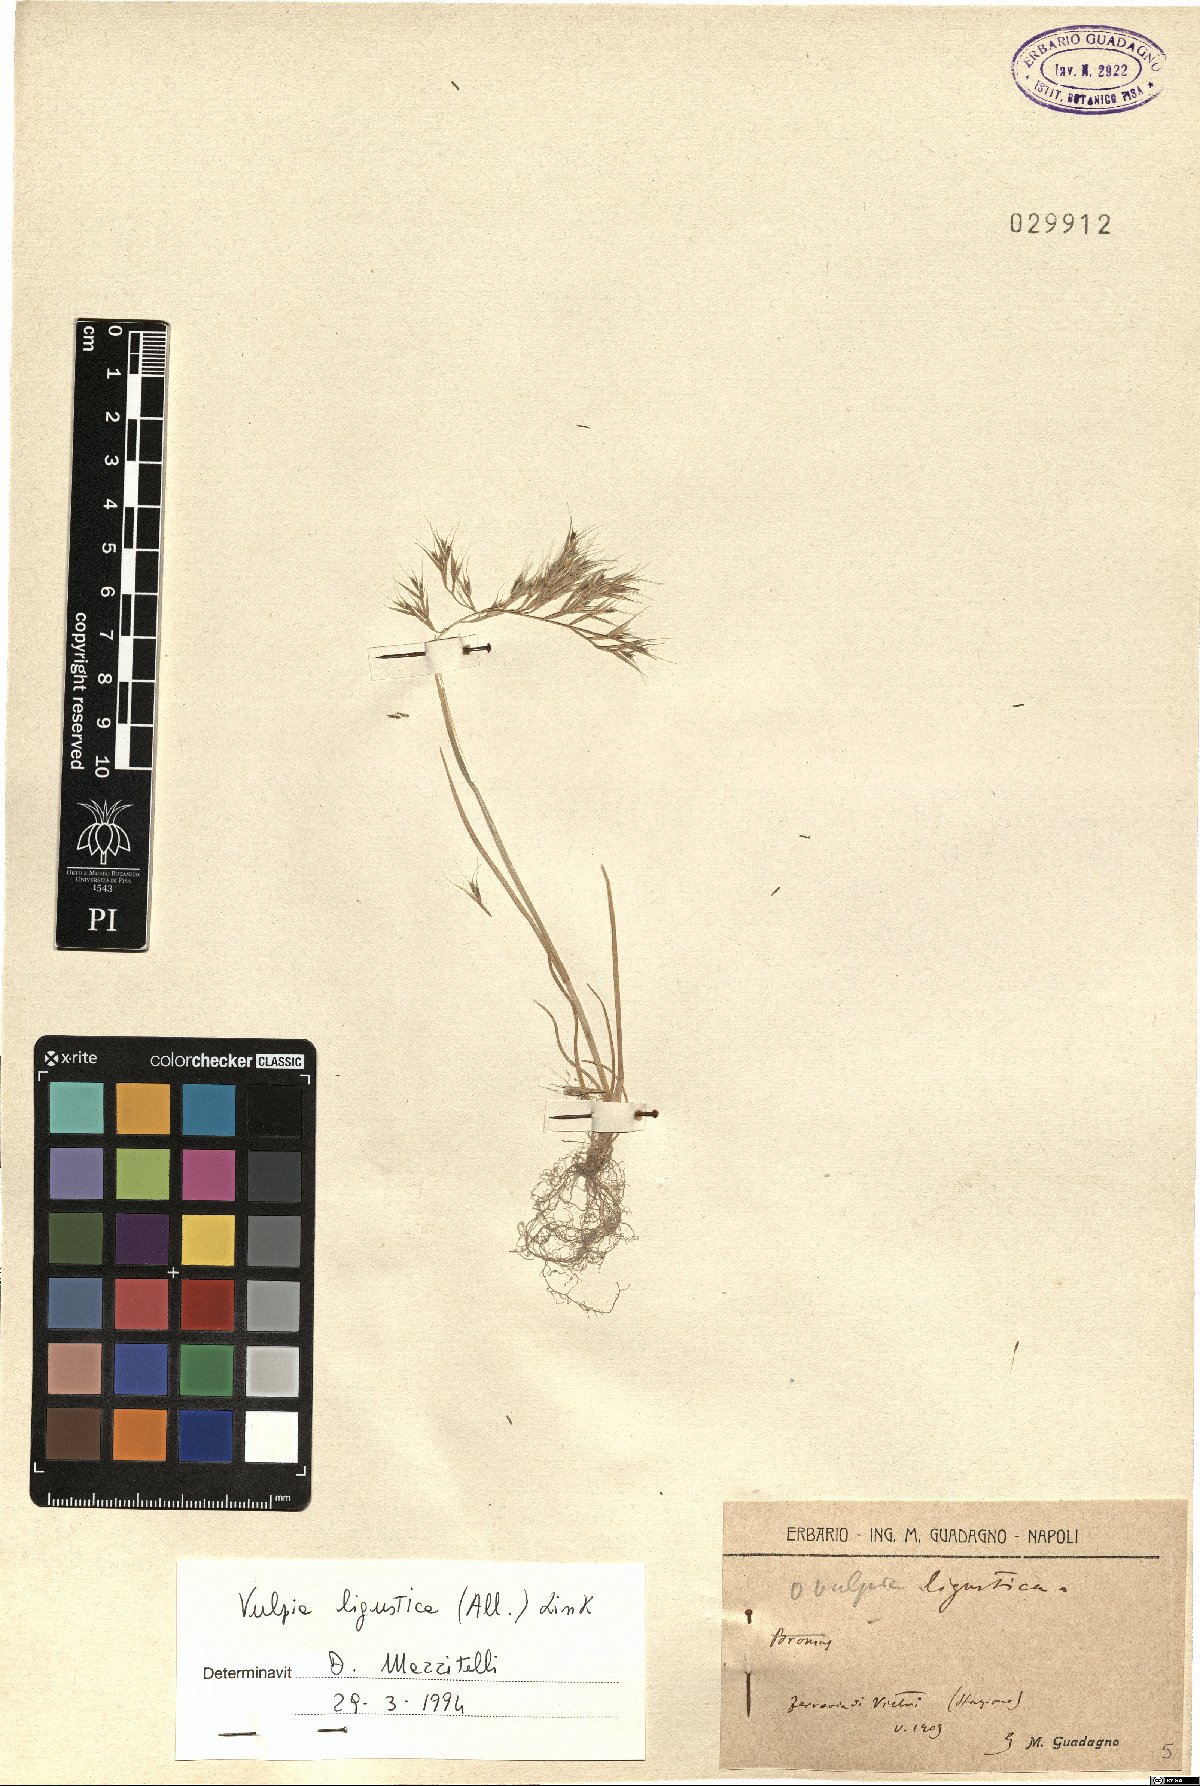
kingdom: Plantae
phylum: Tracheophyta
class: Liliopsida
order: Poales
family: Poaceae
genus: Festuca
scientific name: Festuca ligustica
